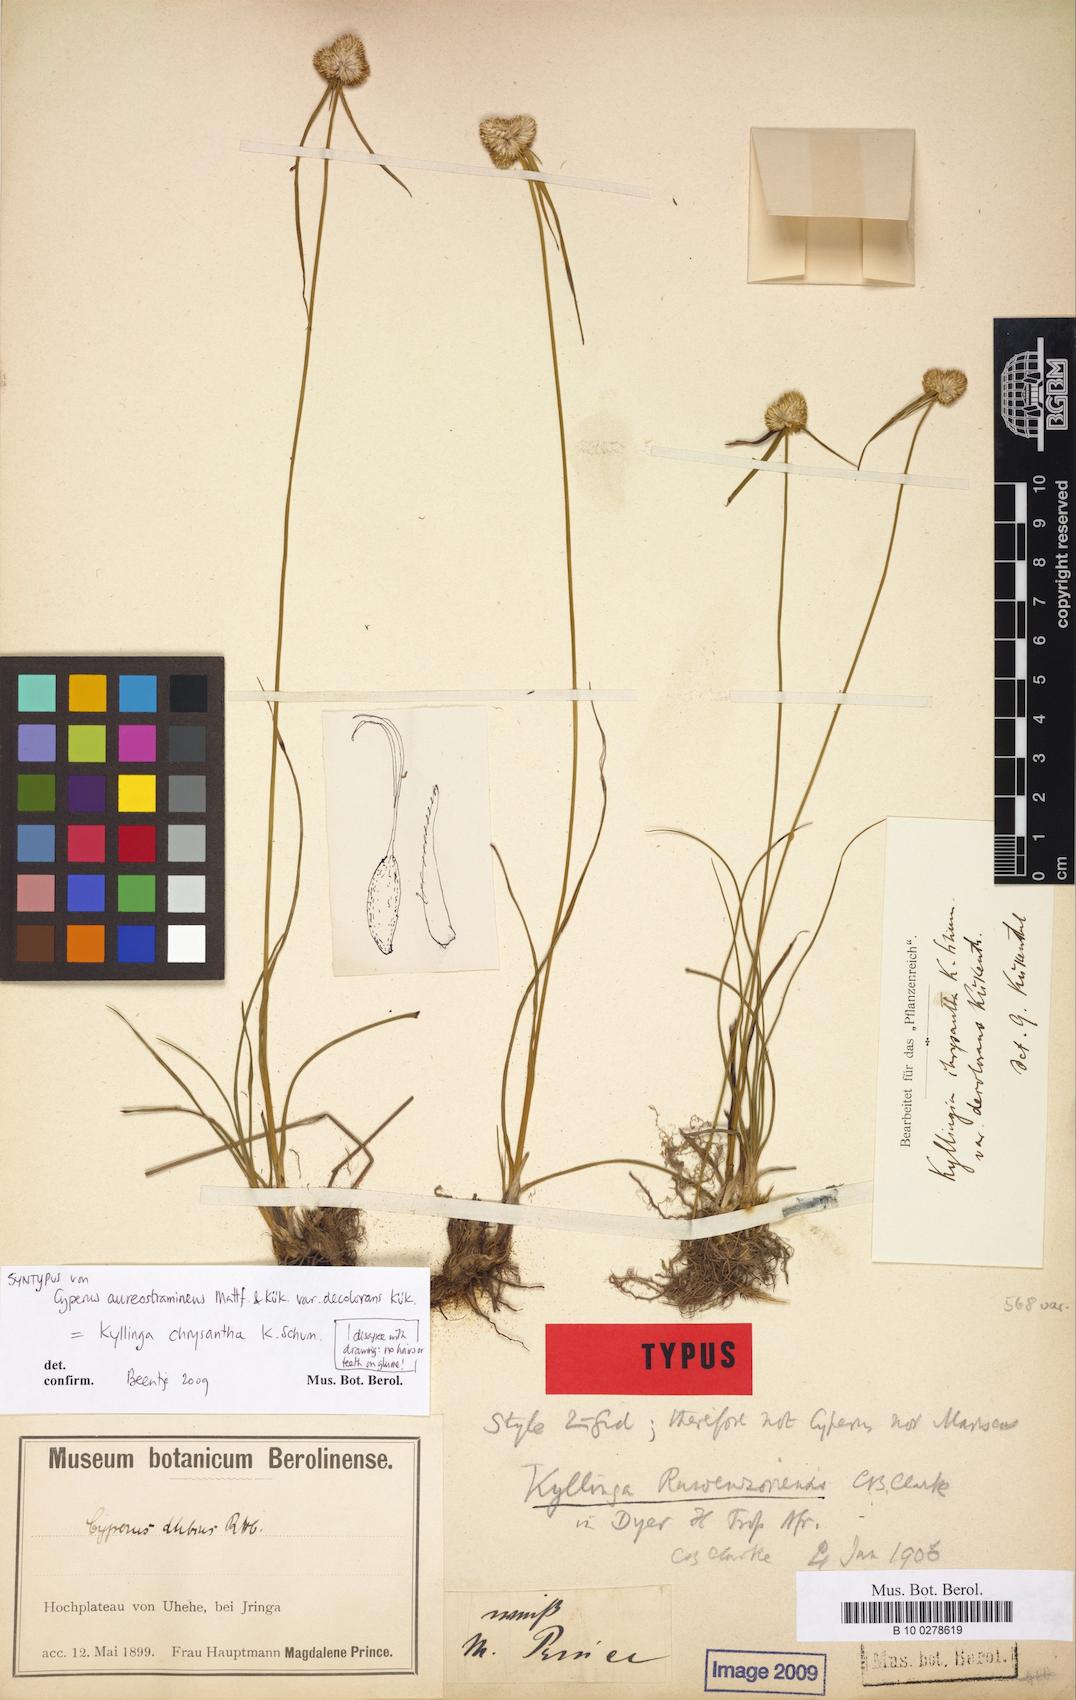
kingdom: Plantae
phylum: Tracheophyta
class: Liliopsida
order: Poales
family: Cyperaceae
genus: Cyperus
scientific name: Cyperus aureostramineus
